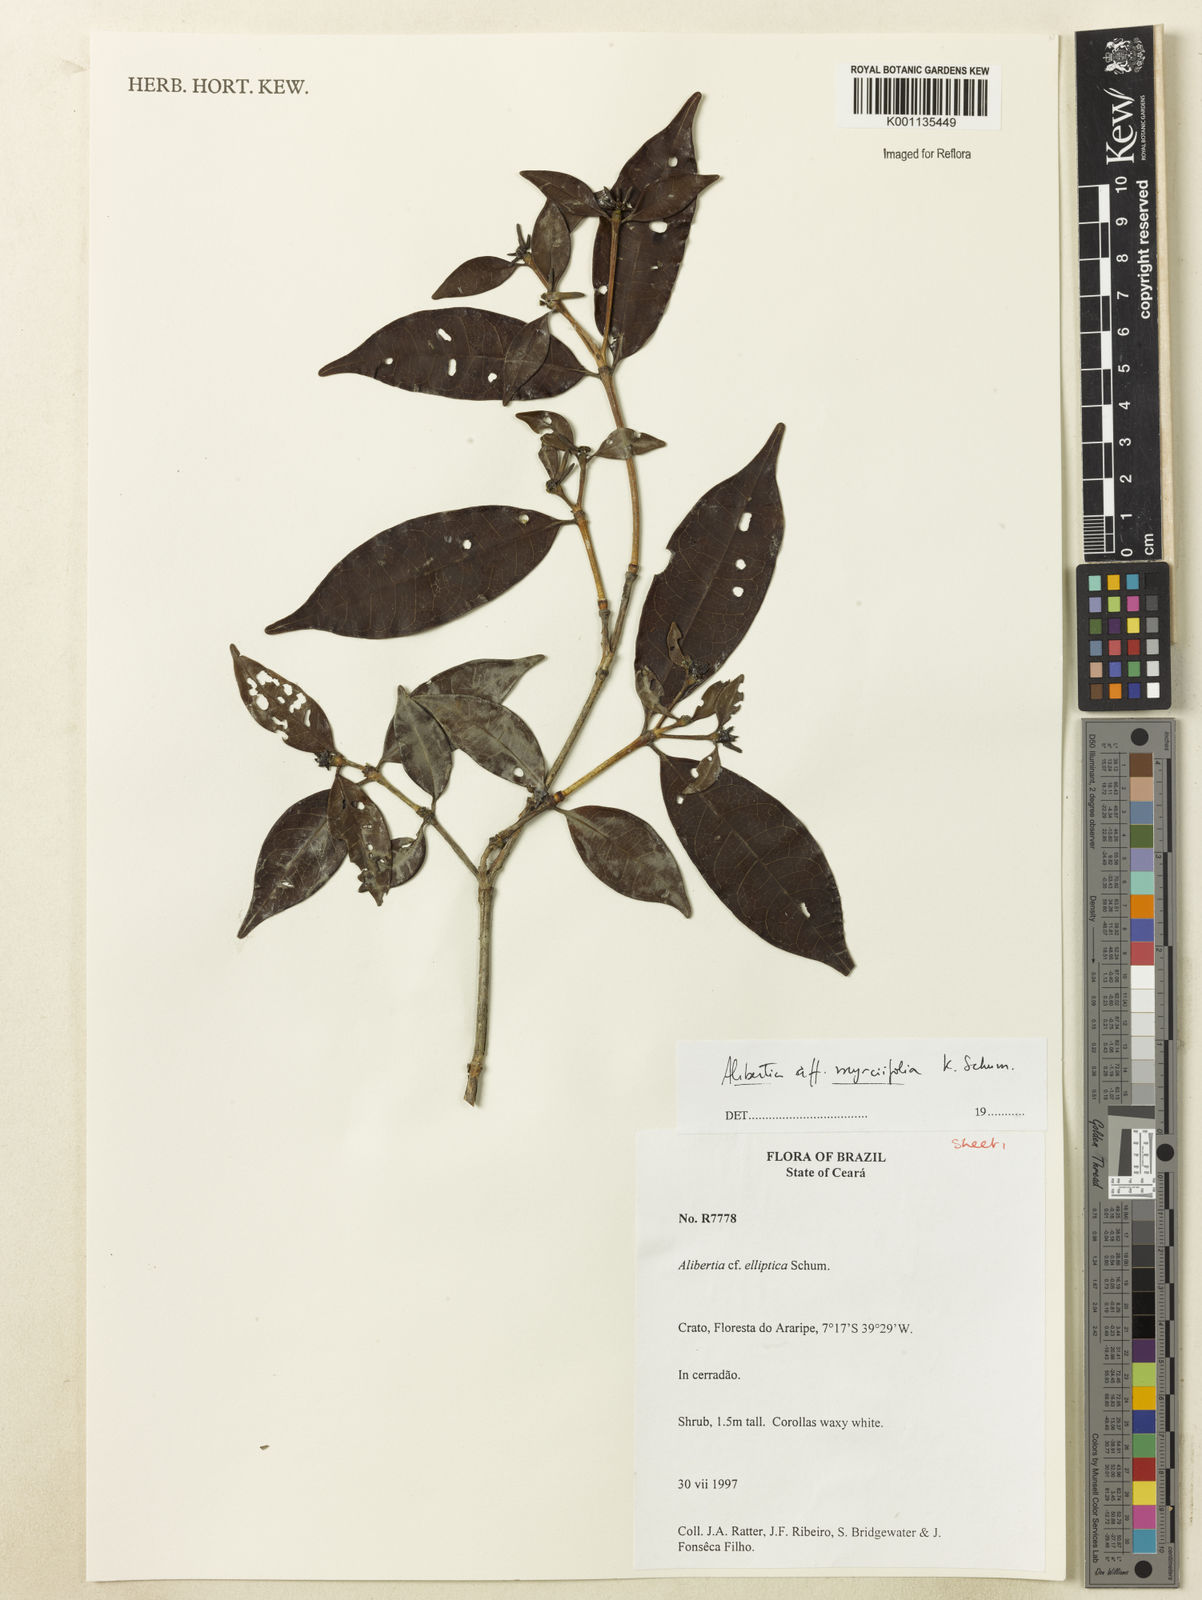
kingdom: Plantae
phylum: Tracheophyta
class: Magnoliopsida
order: Gentianales
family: Rubiaceae
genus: Cordiera
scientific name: Cordiera myrciifolia
